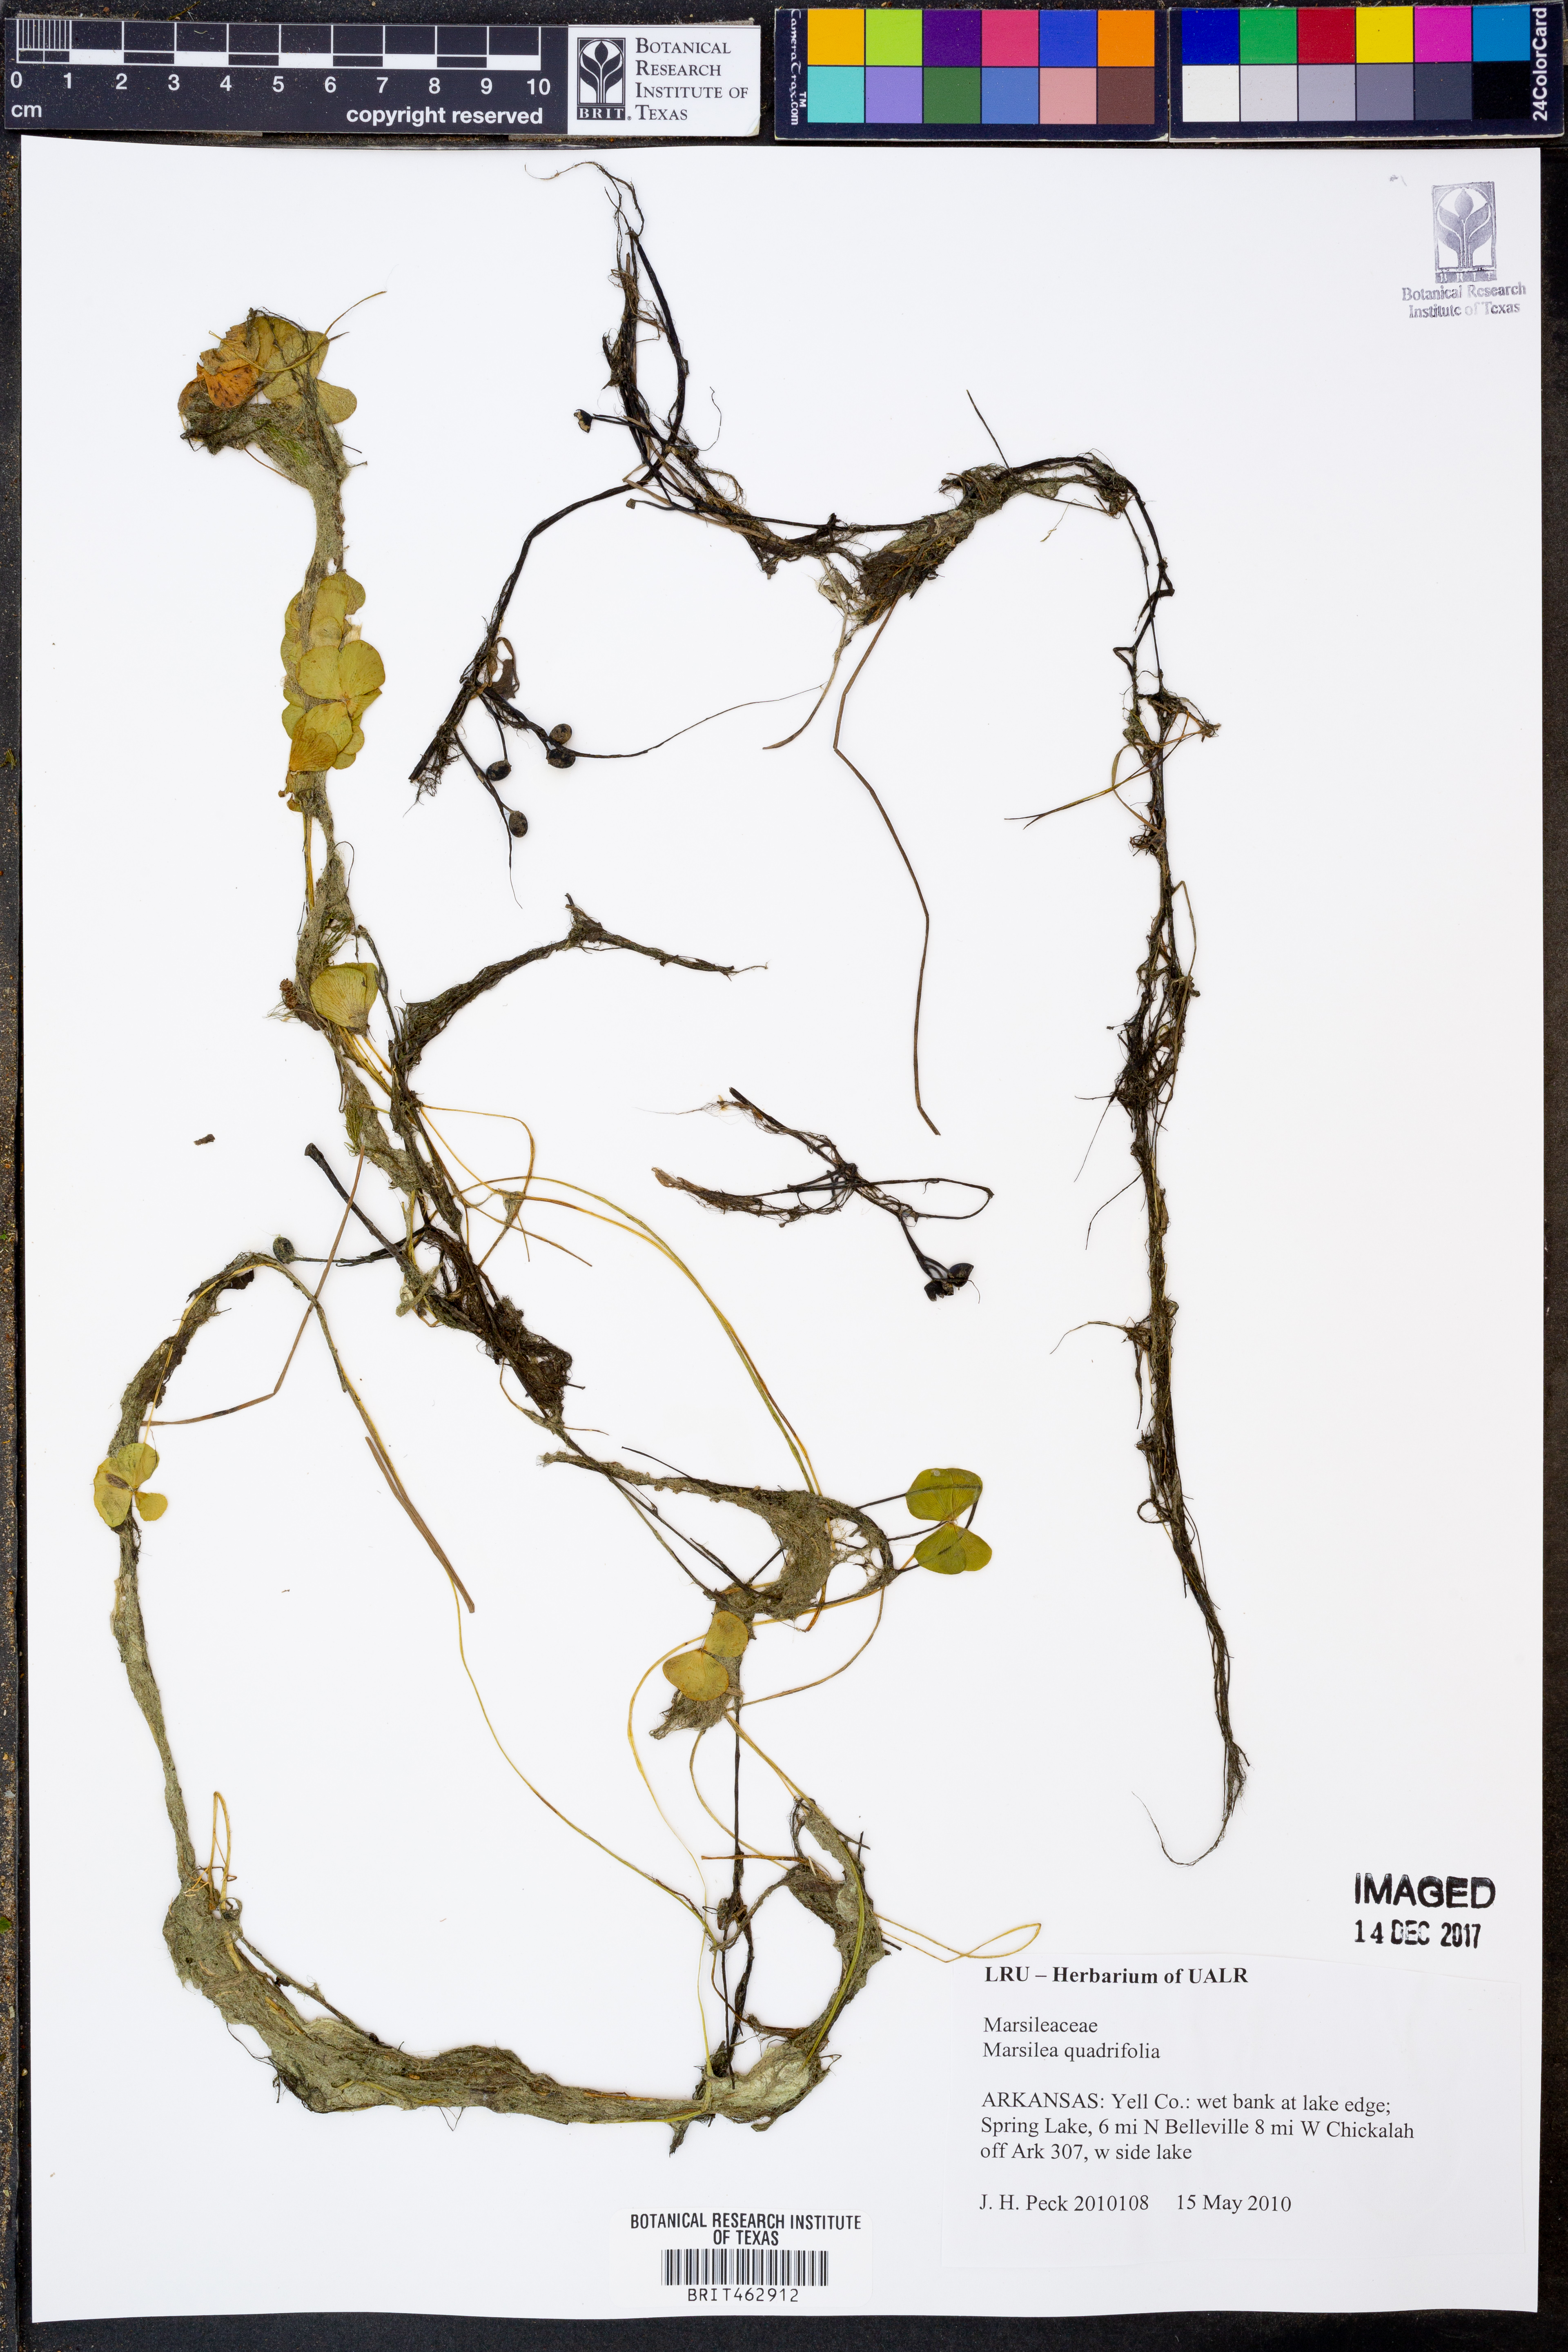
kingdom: Plantae
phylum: Tracheophyta
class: Polypodiopsida
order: Salviniales
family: Marsileaceae
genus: Marsilea
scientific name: Marsilea quadrifolia
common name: Water shamrock
